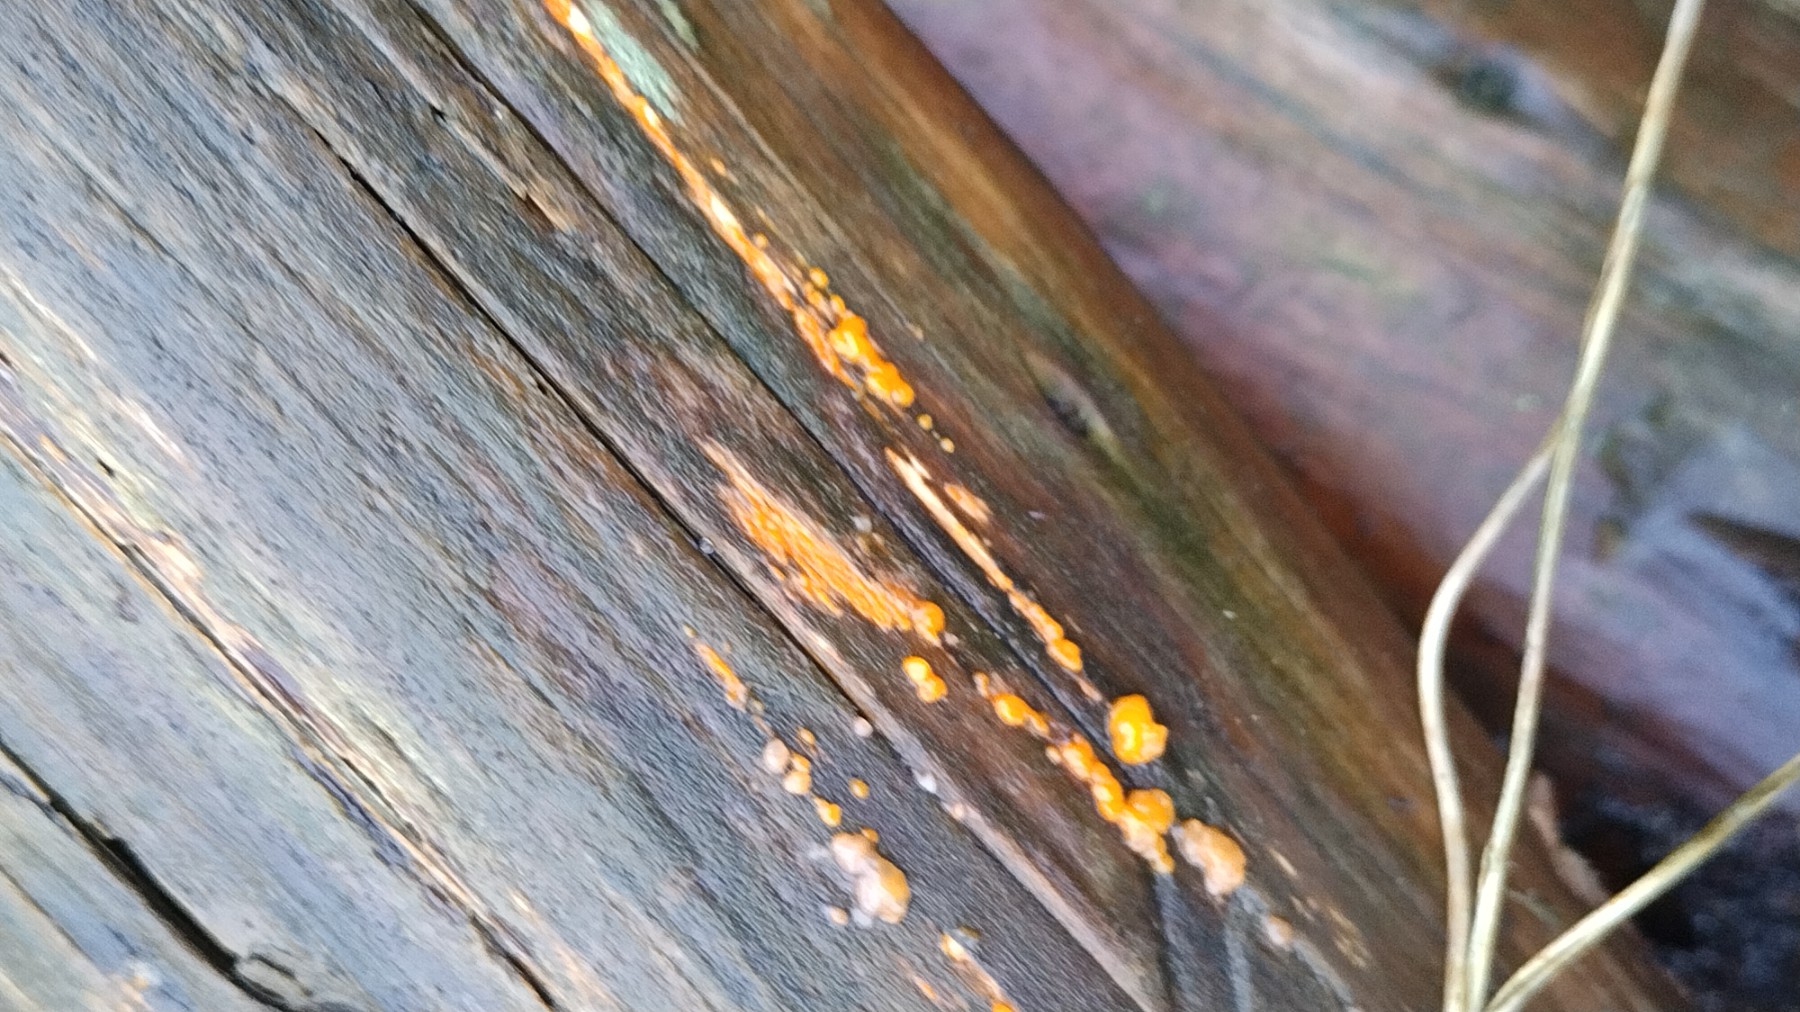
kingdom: Fungi
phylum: Basidiomycota
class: Dacrymycetes
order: Dacrymycetales
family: Dacrymycetaceae
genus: Dacrymyces
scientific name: Dacrymyces stillatus
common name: almindelig tåresvamp
